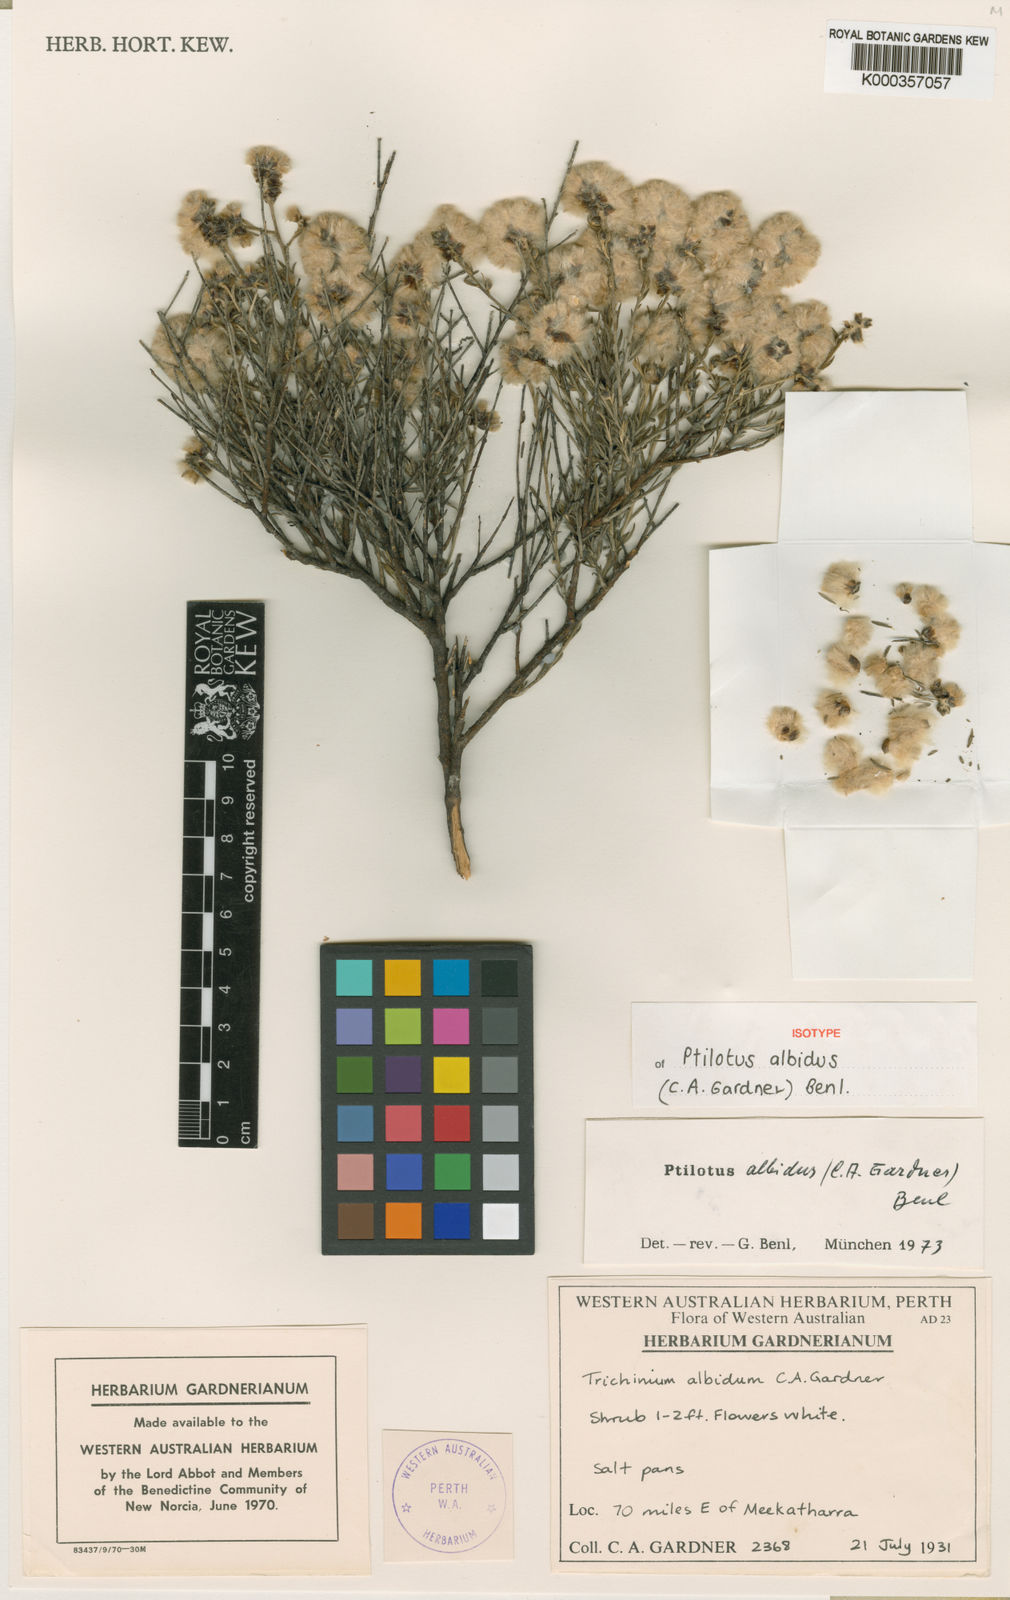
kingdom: Plantae
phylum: Tracheophyta
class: Magnoliopsida
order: Caryophyllales
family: Amaranthaceae
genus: Ptilotus
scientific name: Ptilotus albidus
